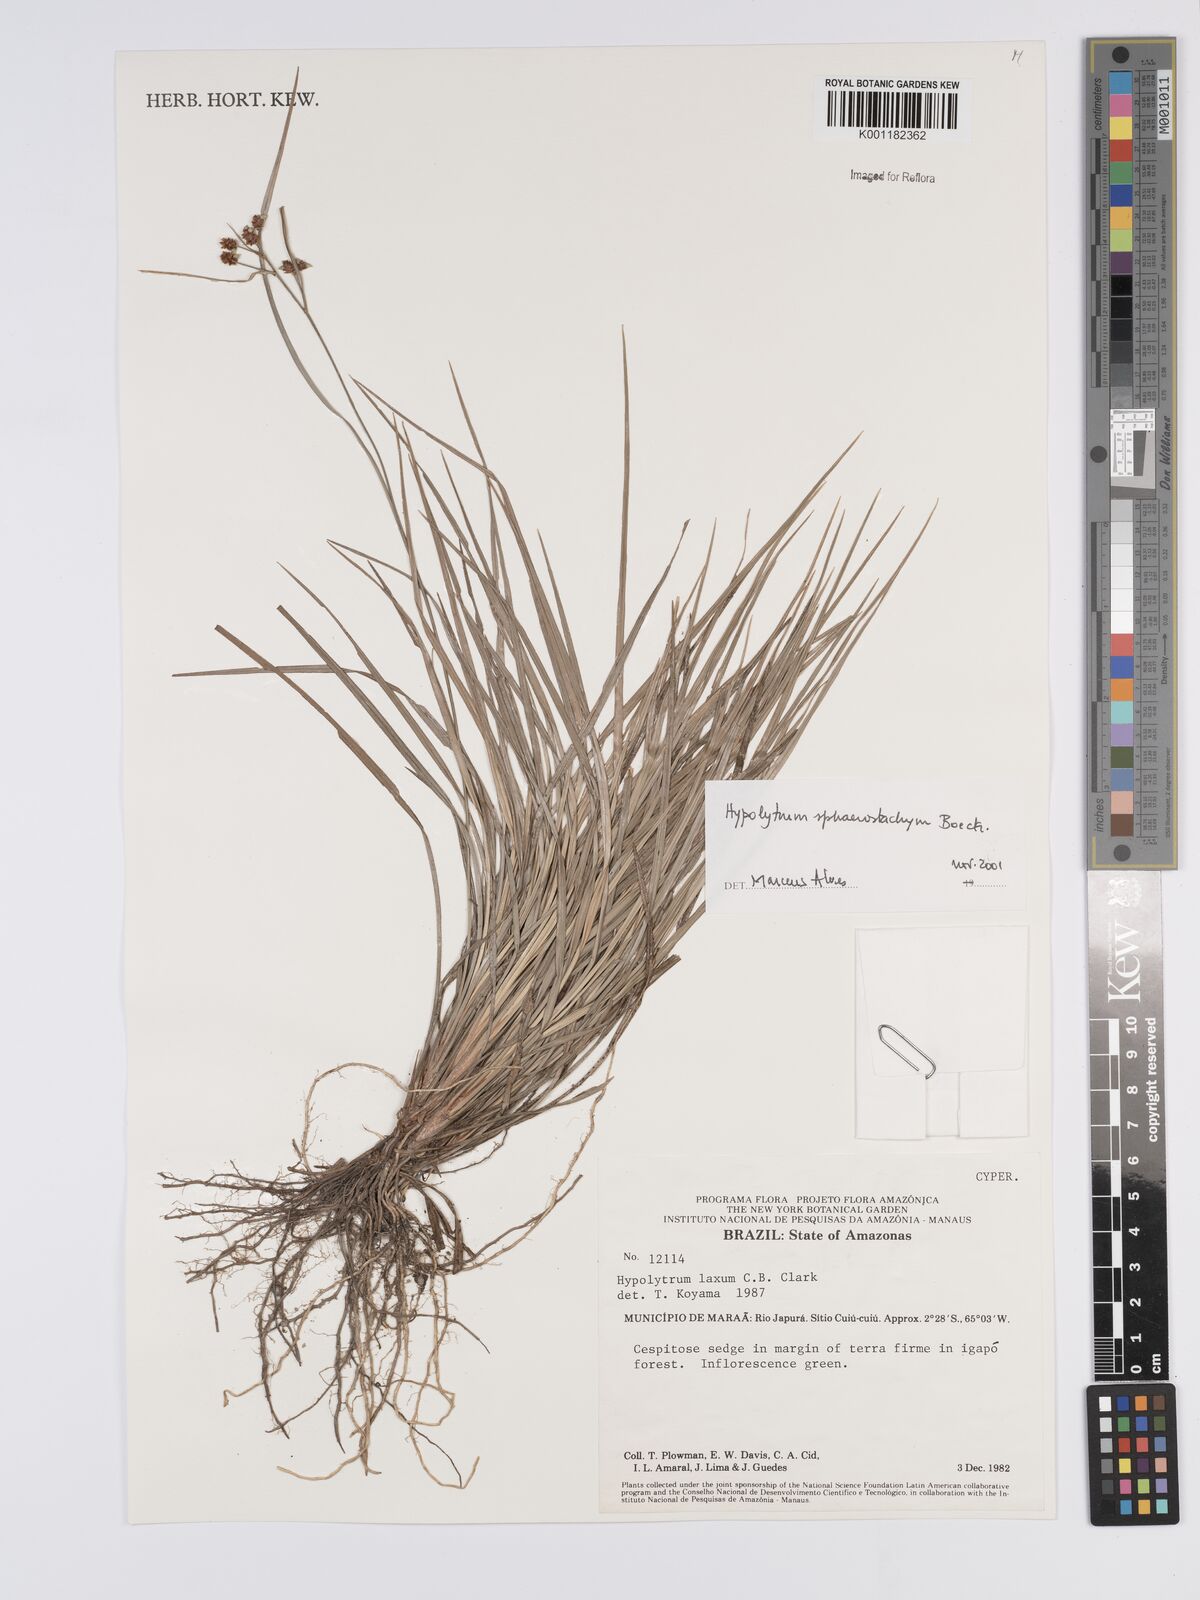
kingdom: Plantae
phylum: Tracheophyta
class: Liliopsida
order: Poales
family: Cyperaceae
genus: Hypolytrum
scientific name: Hypolytrum sphaerostachyum
